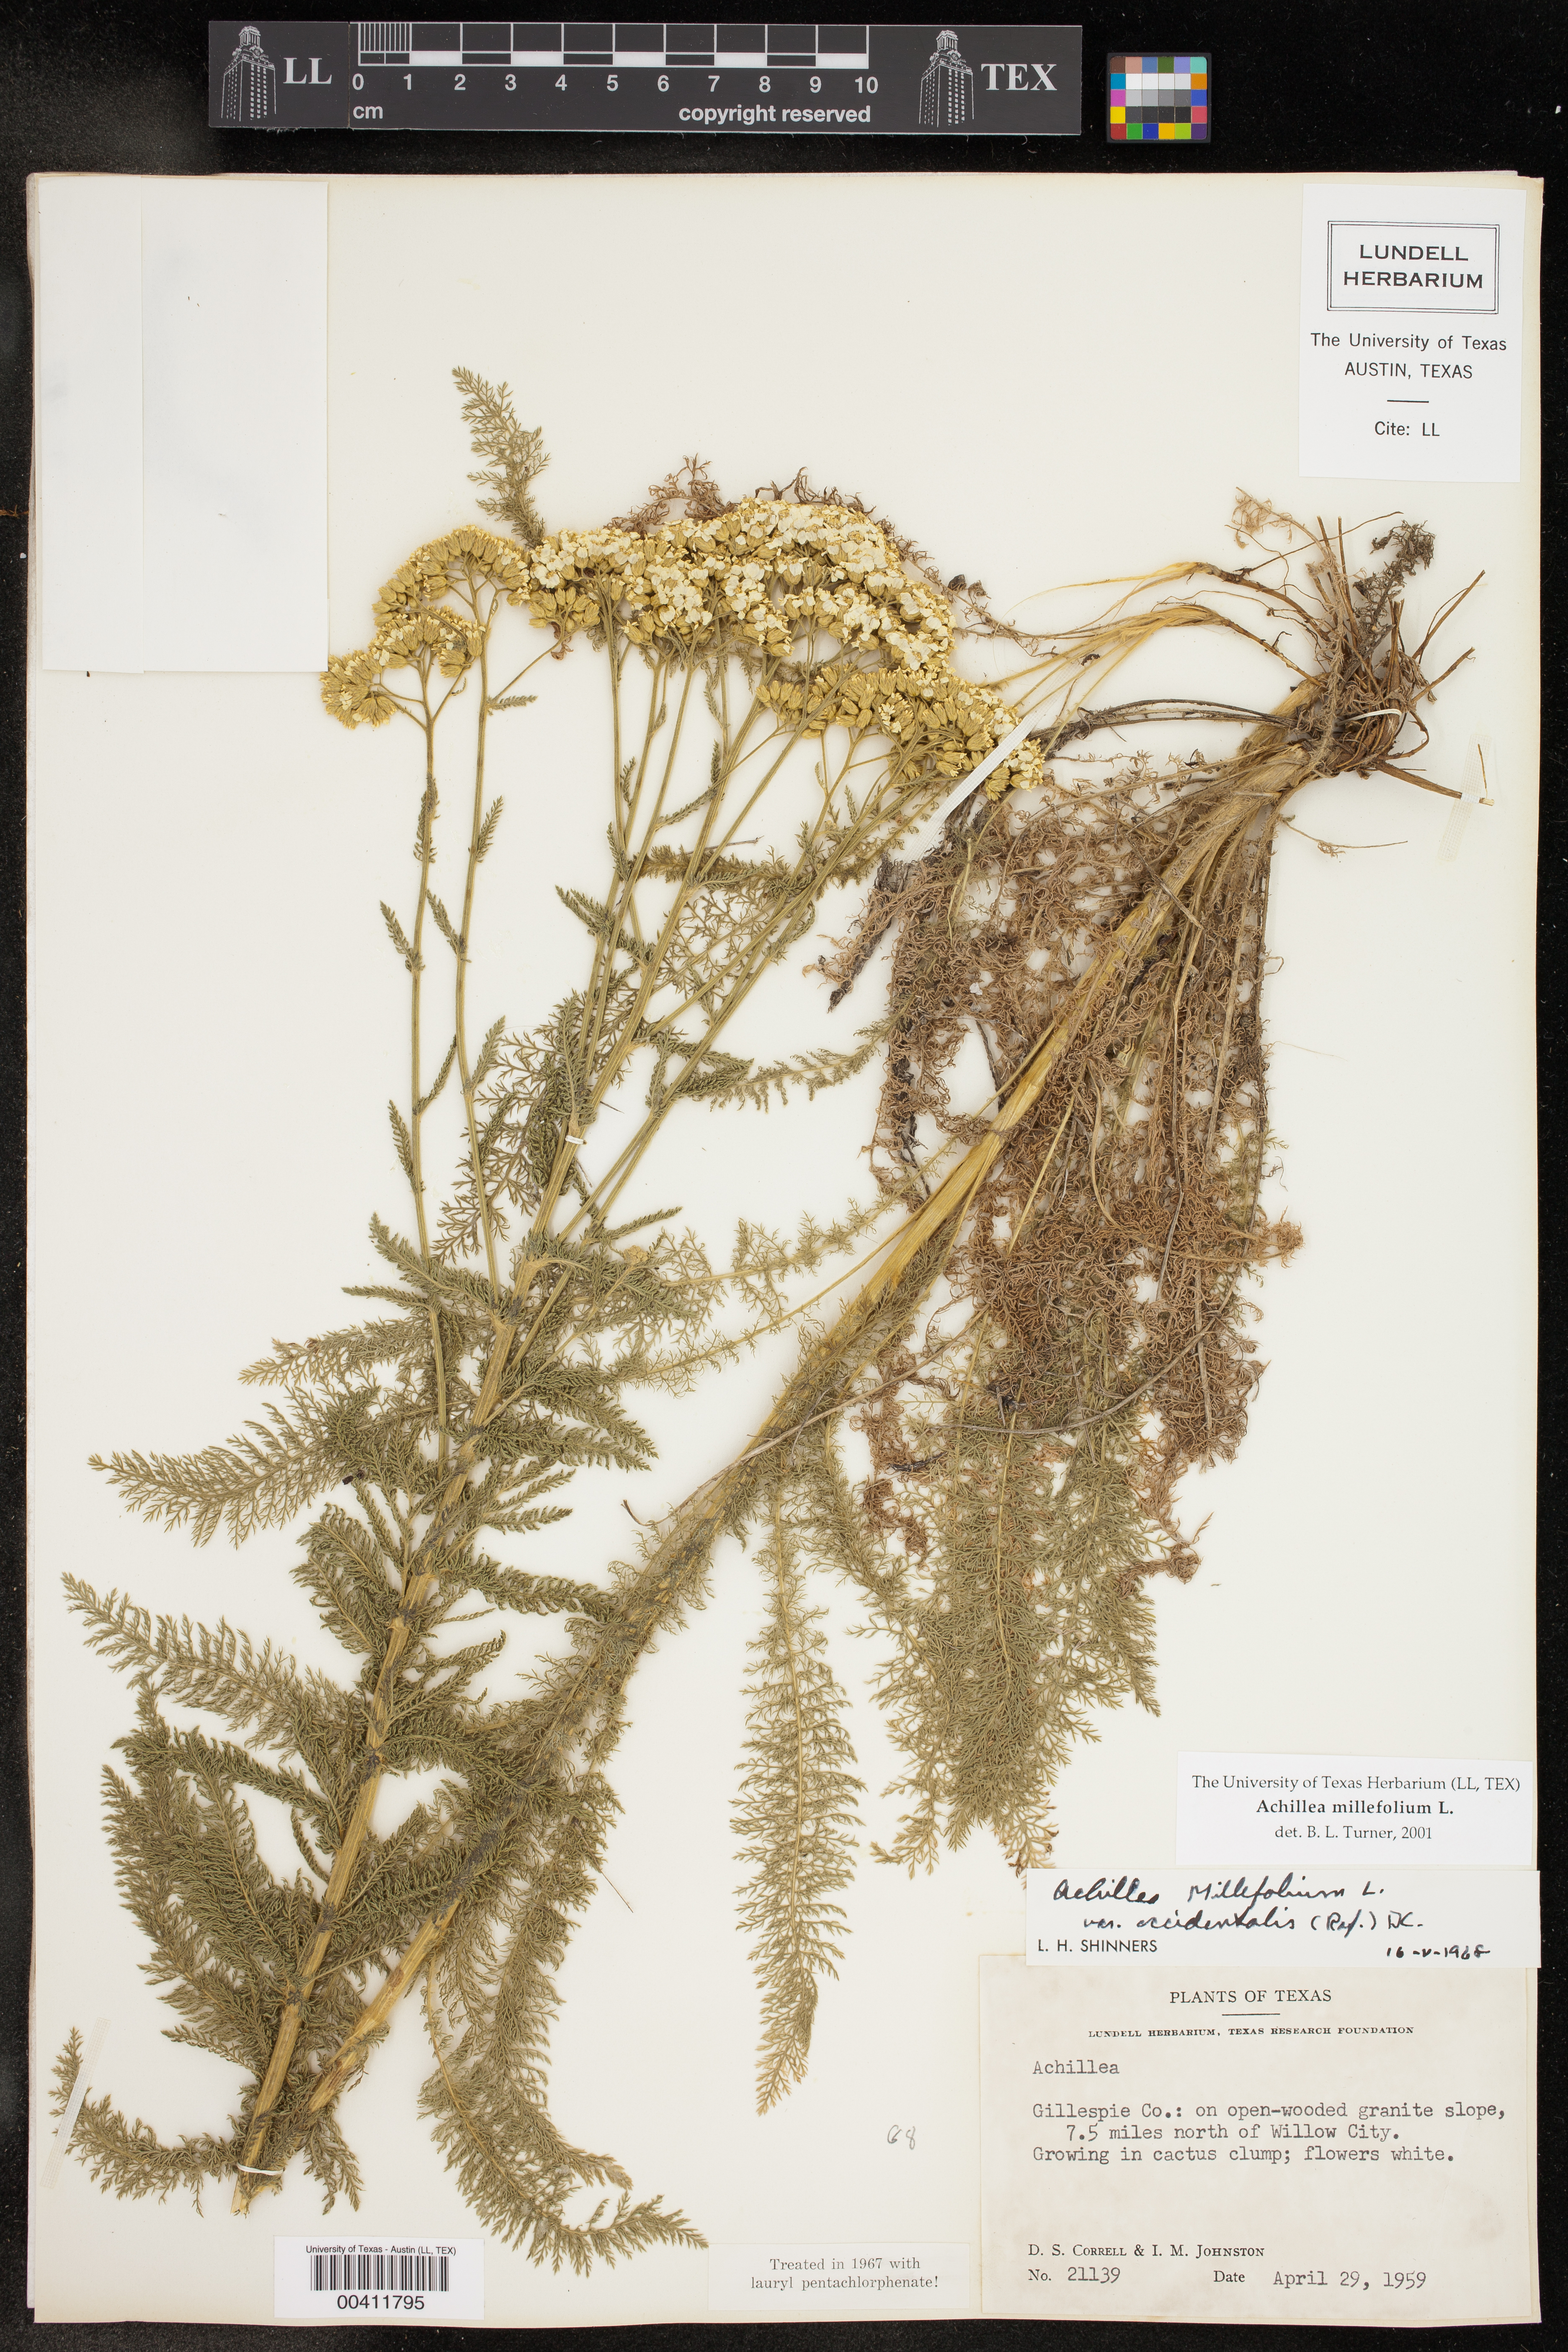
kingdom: Plantae
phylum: Tracheophyta
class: Magnoliopsida
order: Asterales
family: Asteraceae
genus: Achillea
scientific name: Achillea millefolium
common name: Yarrow
